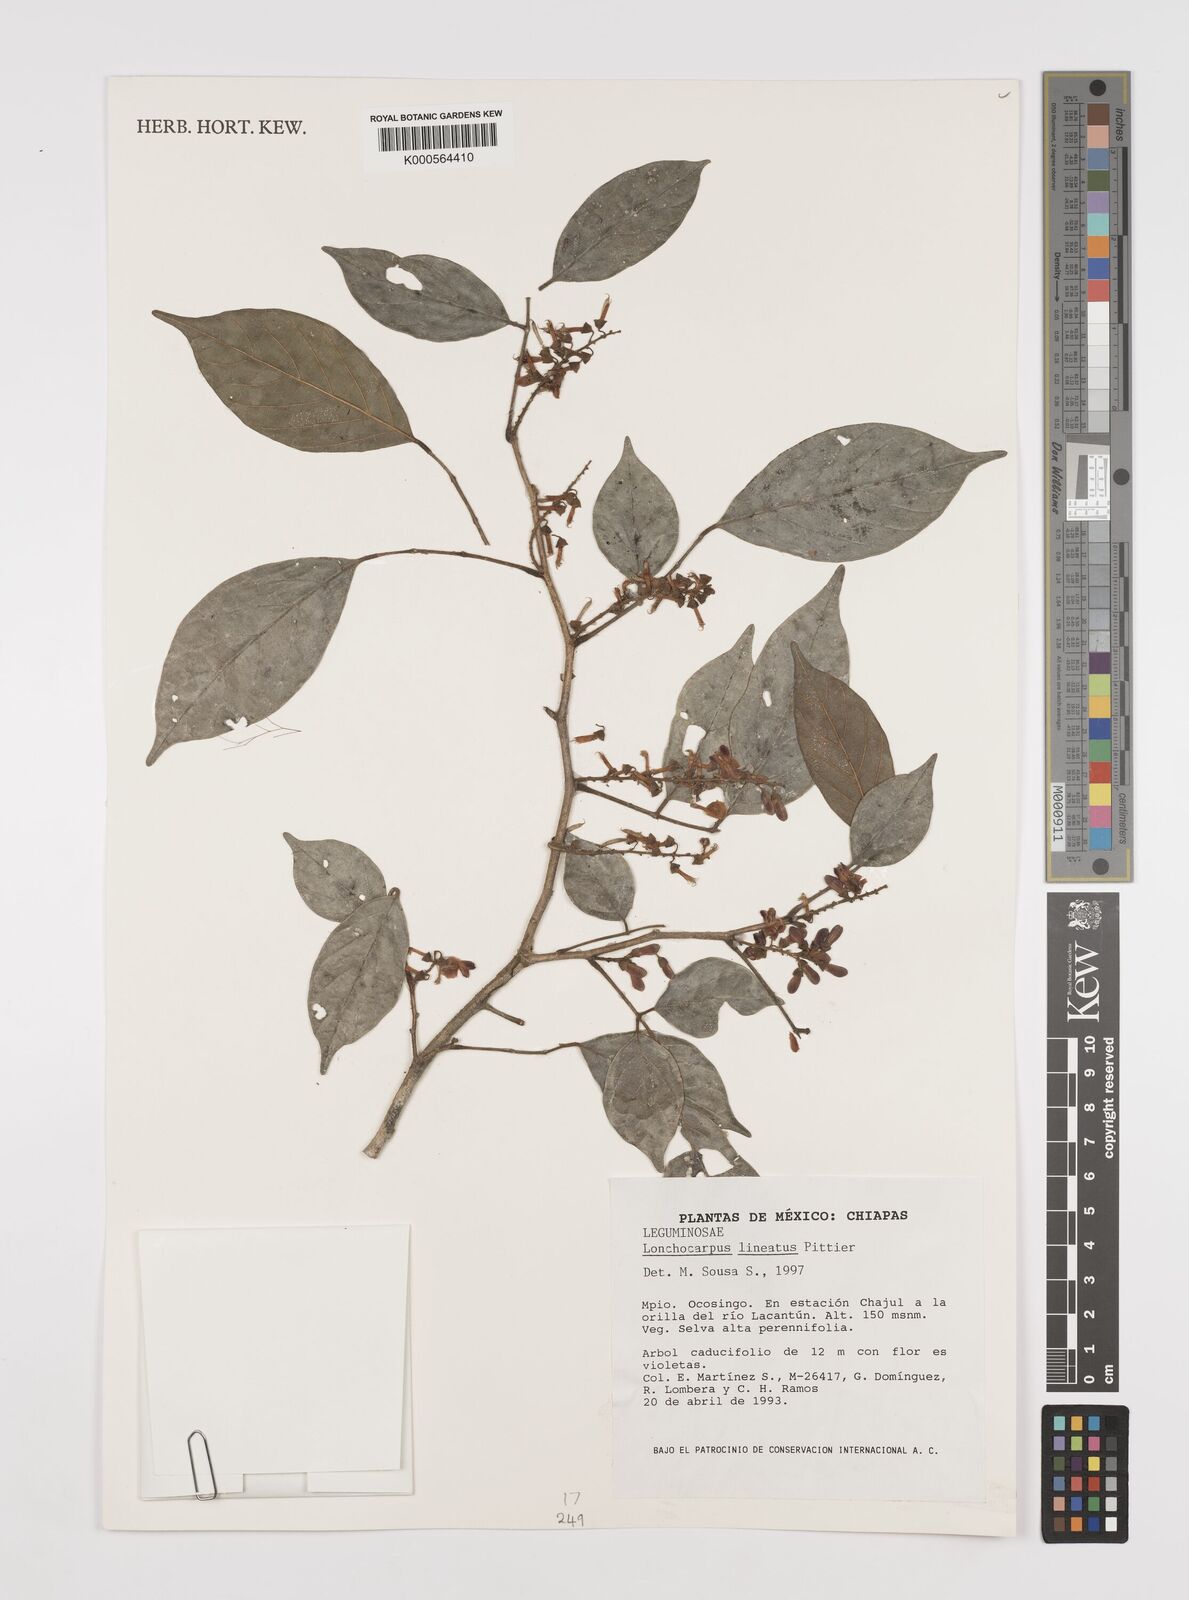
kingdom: Plantae
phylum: Tracheophyta
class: Magnoliopsida
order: Fabales
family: Fabaceae
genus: Lonchocarpus
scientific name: Lonchocarpus lineatus
